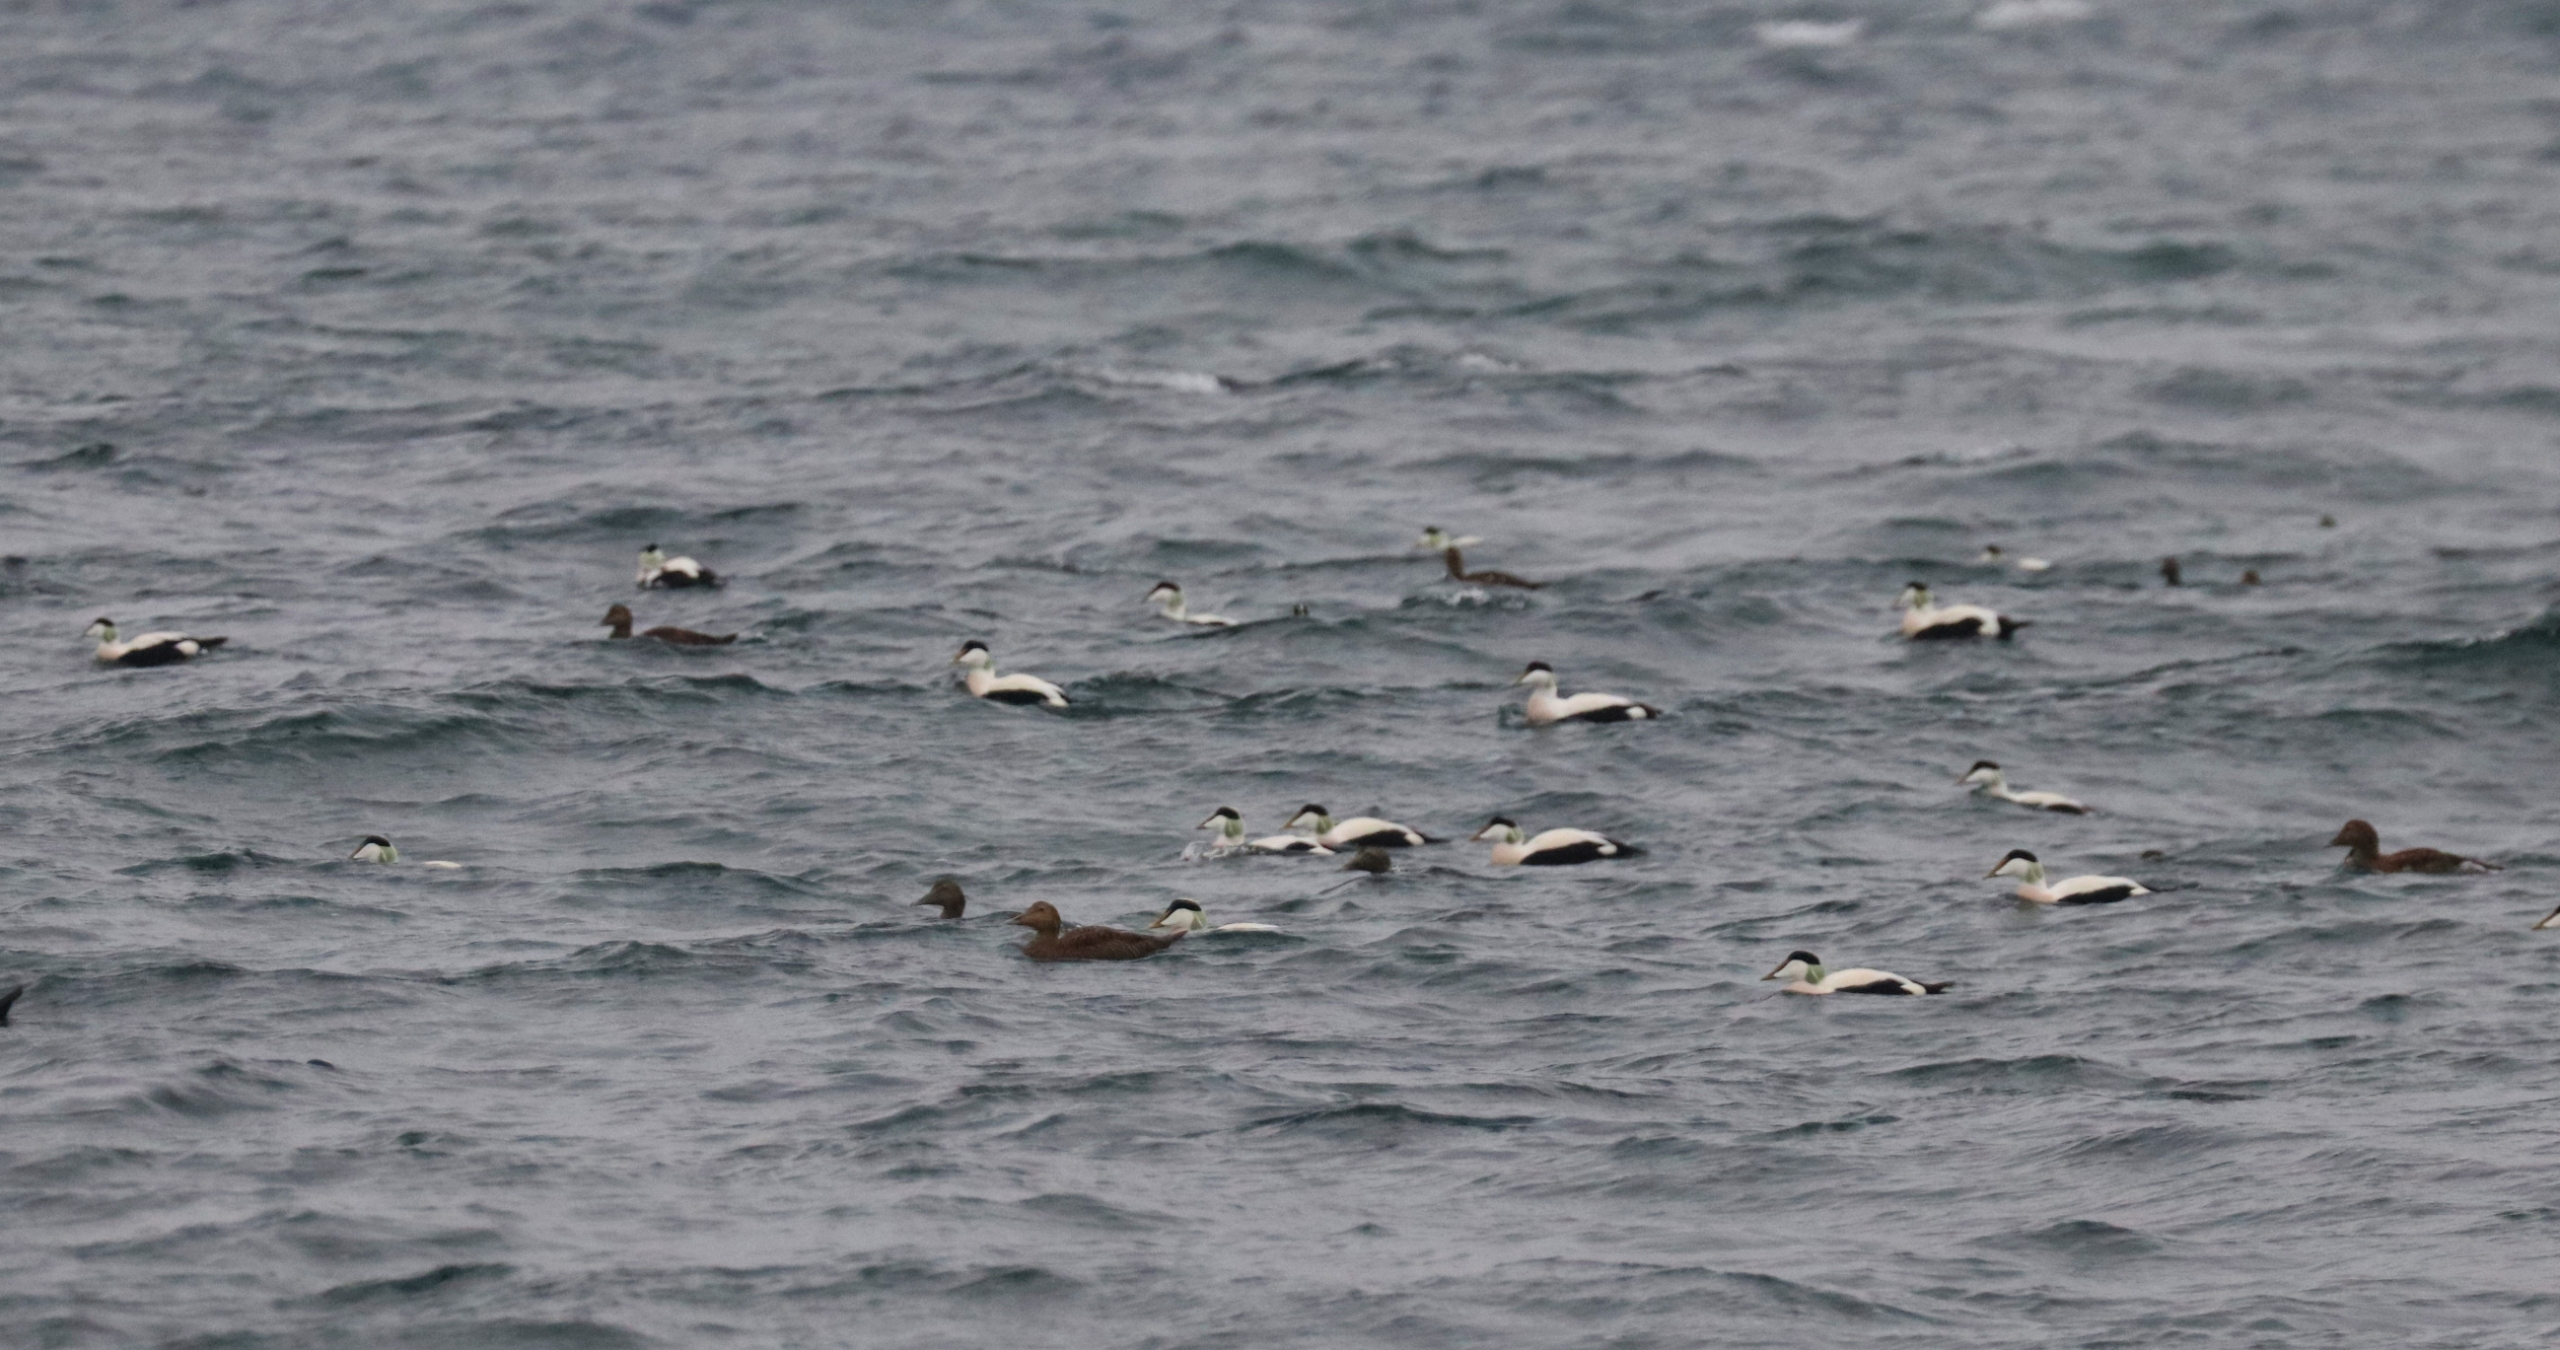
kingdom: Animalia
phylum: Chordata
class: Aves
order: Anseriformes
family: Anatidae
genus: Somateria
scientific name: Somateria mollissima
